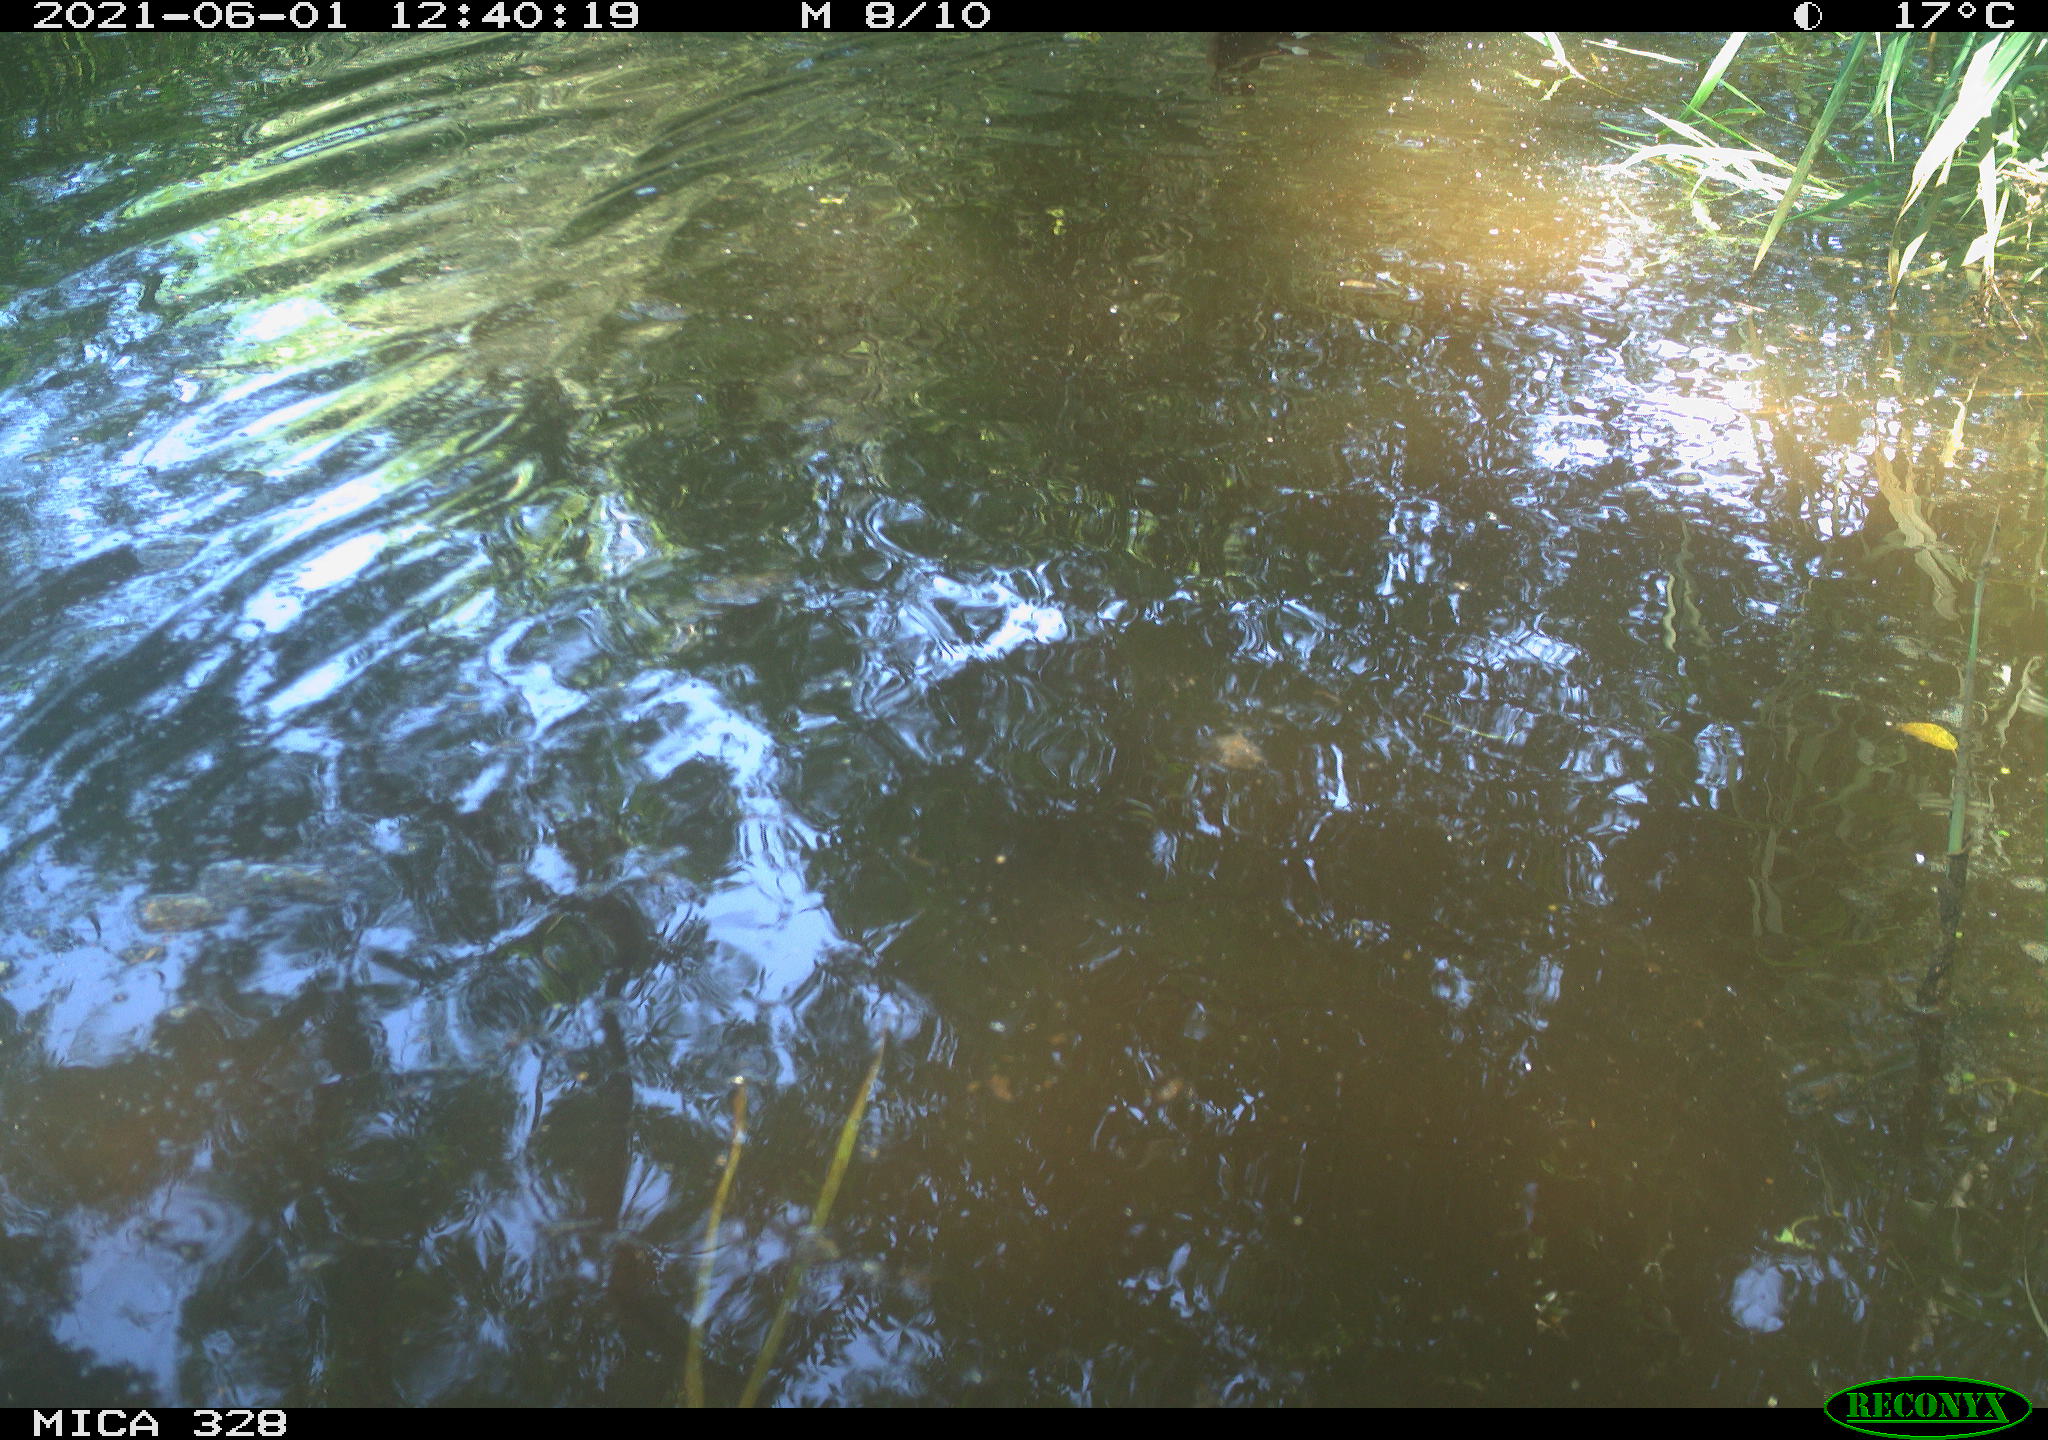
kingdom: Animalia
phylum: Chordata
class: Aves
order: Anseriformes
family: Anatidae
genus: Anas
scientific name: Anas platyrhynchos
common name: Mallard
